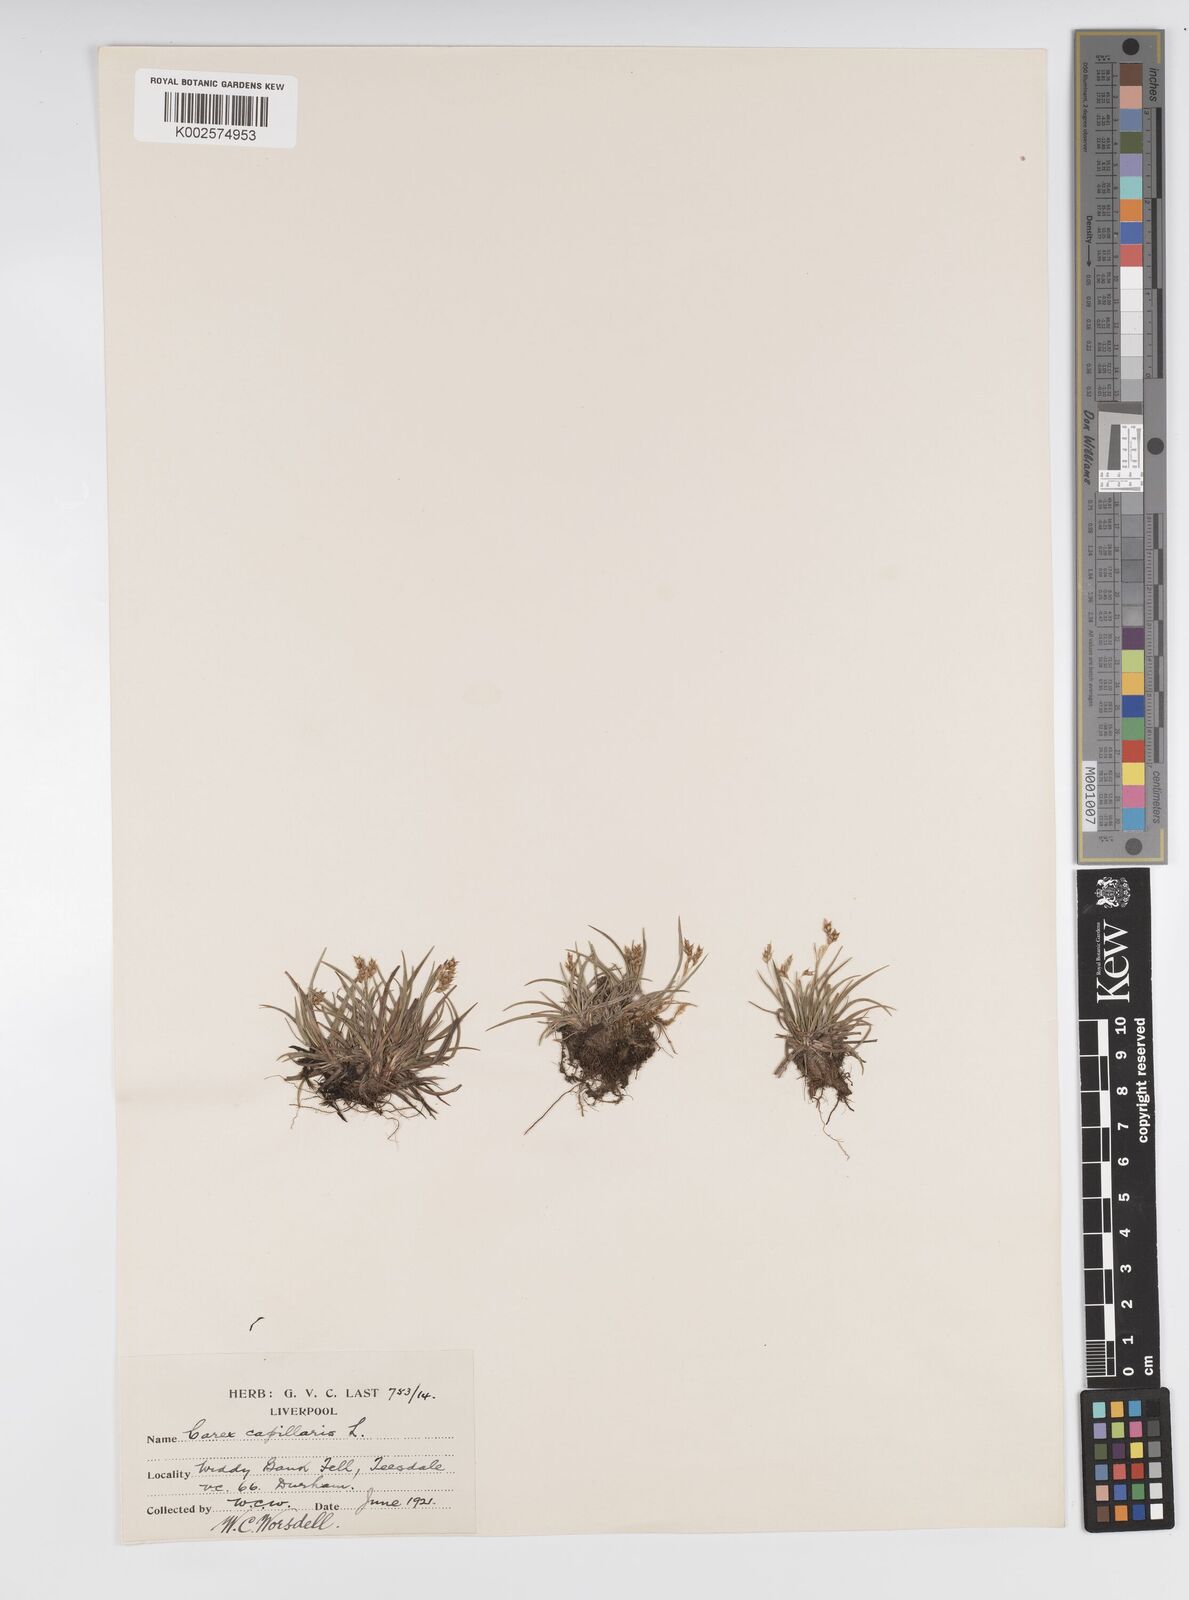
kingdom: Plantae
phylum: Tracheophyta
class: Liliopsida
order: Poales
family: Cyperaceae
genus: Carex
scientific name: Carex capillaris
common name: Hair sedge
